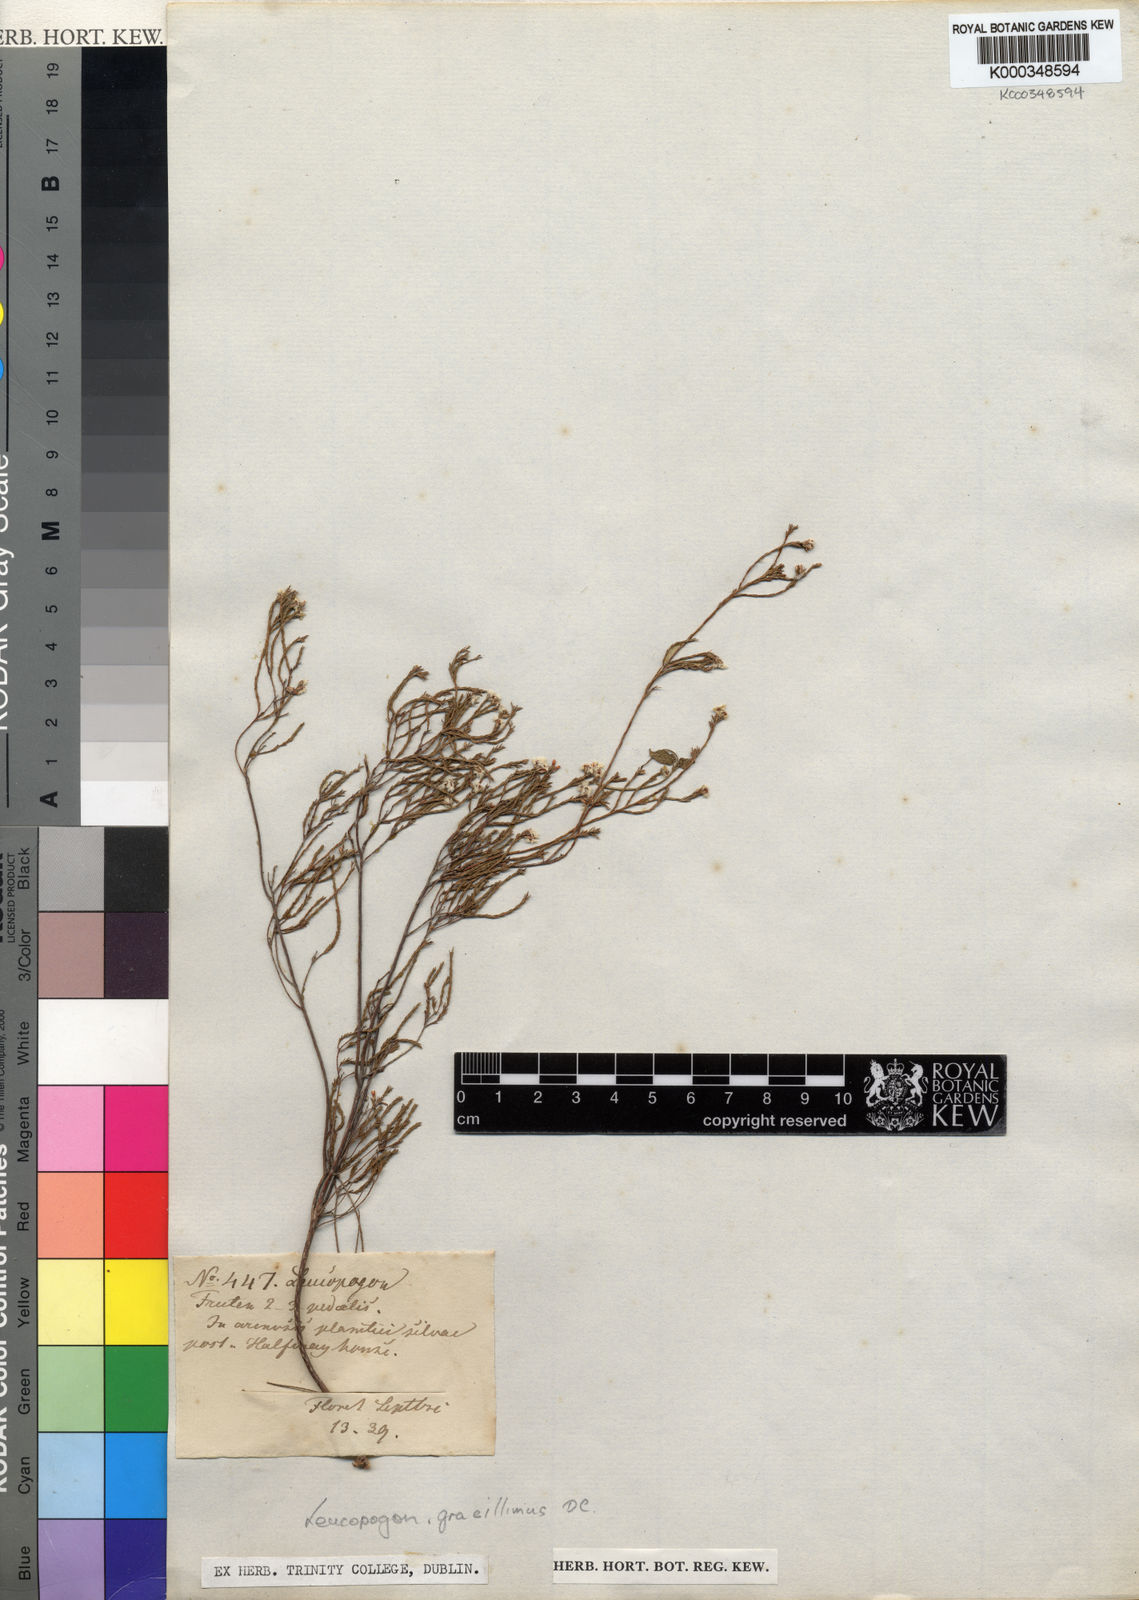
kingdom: Plantae
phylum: Tracheophyta
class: Magnoliopsida
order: Ericales
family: Ericaceae
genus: Leucopogon
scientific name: Leucopogon gracillimus
